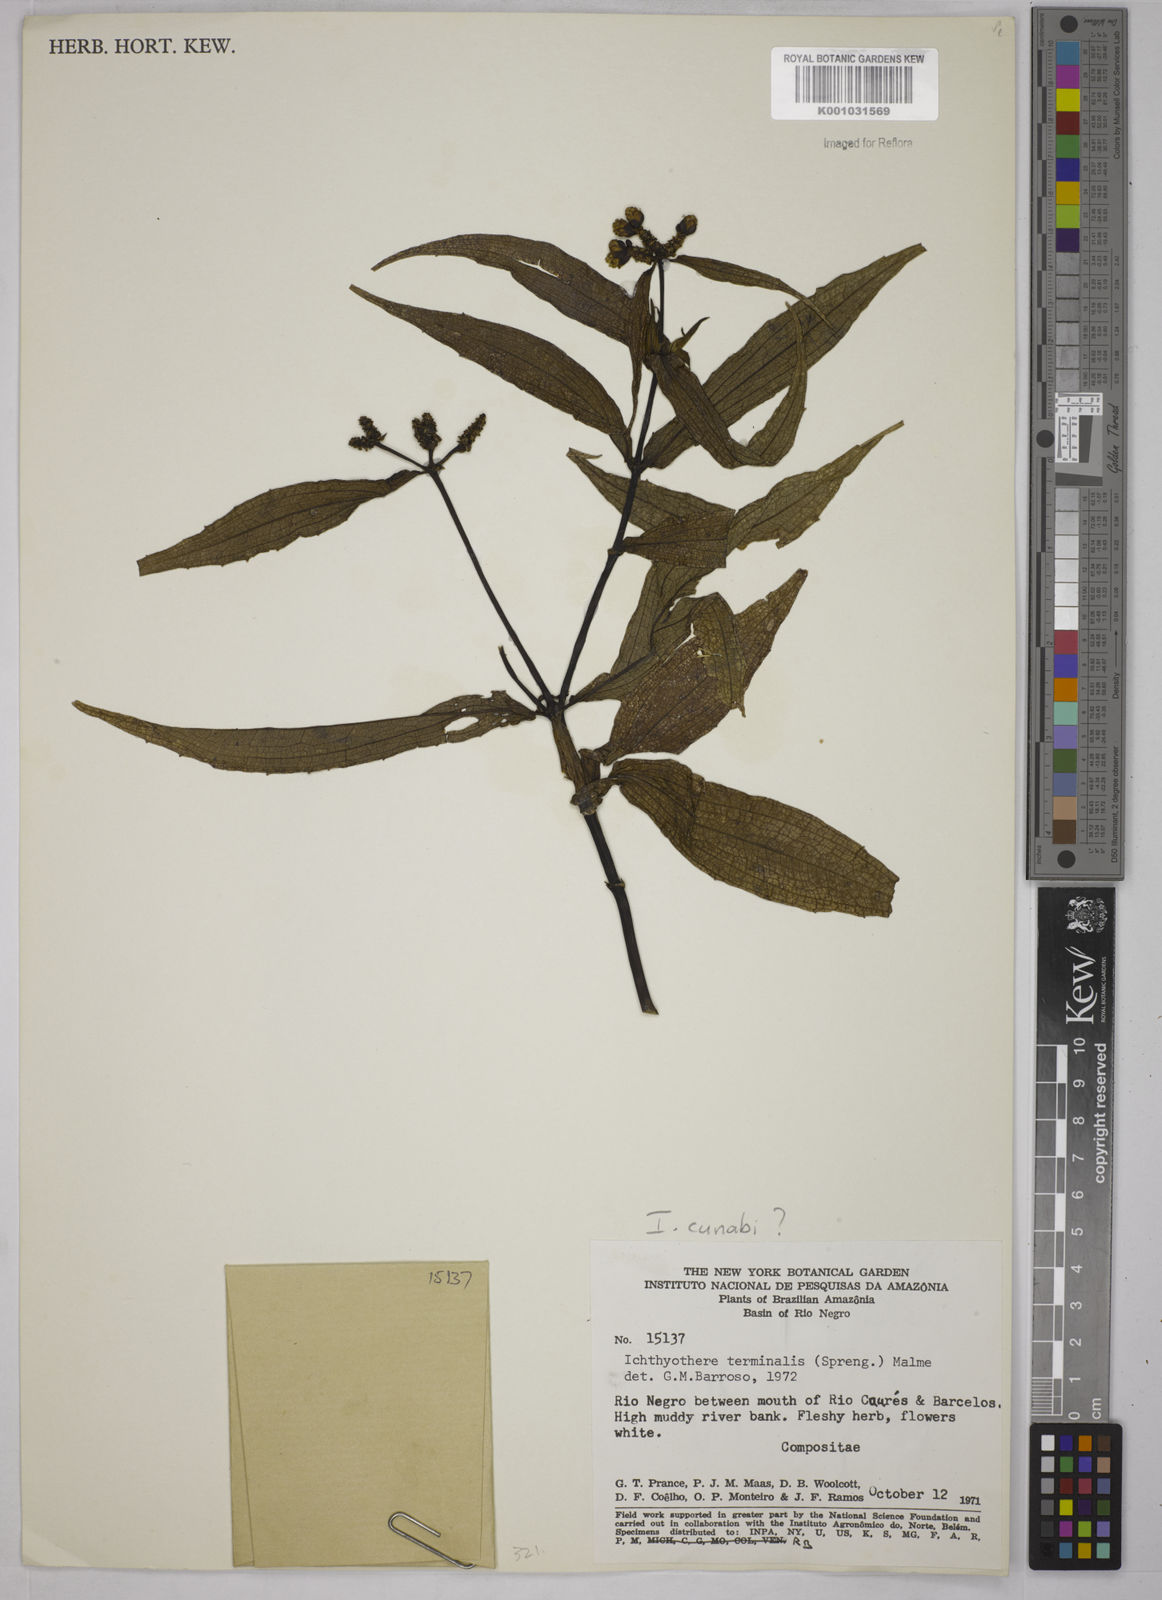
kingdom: Plantae
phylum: Tracheophyta
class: Magnoliopsida
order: Asterales
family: Asteraceae
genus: Ichthyothere
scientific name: Ichthyothere cunabi
